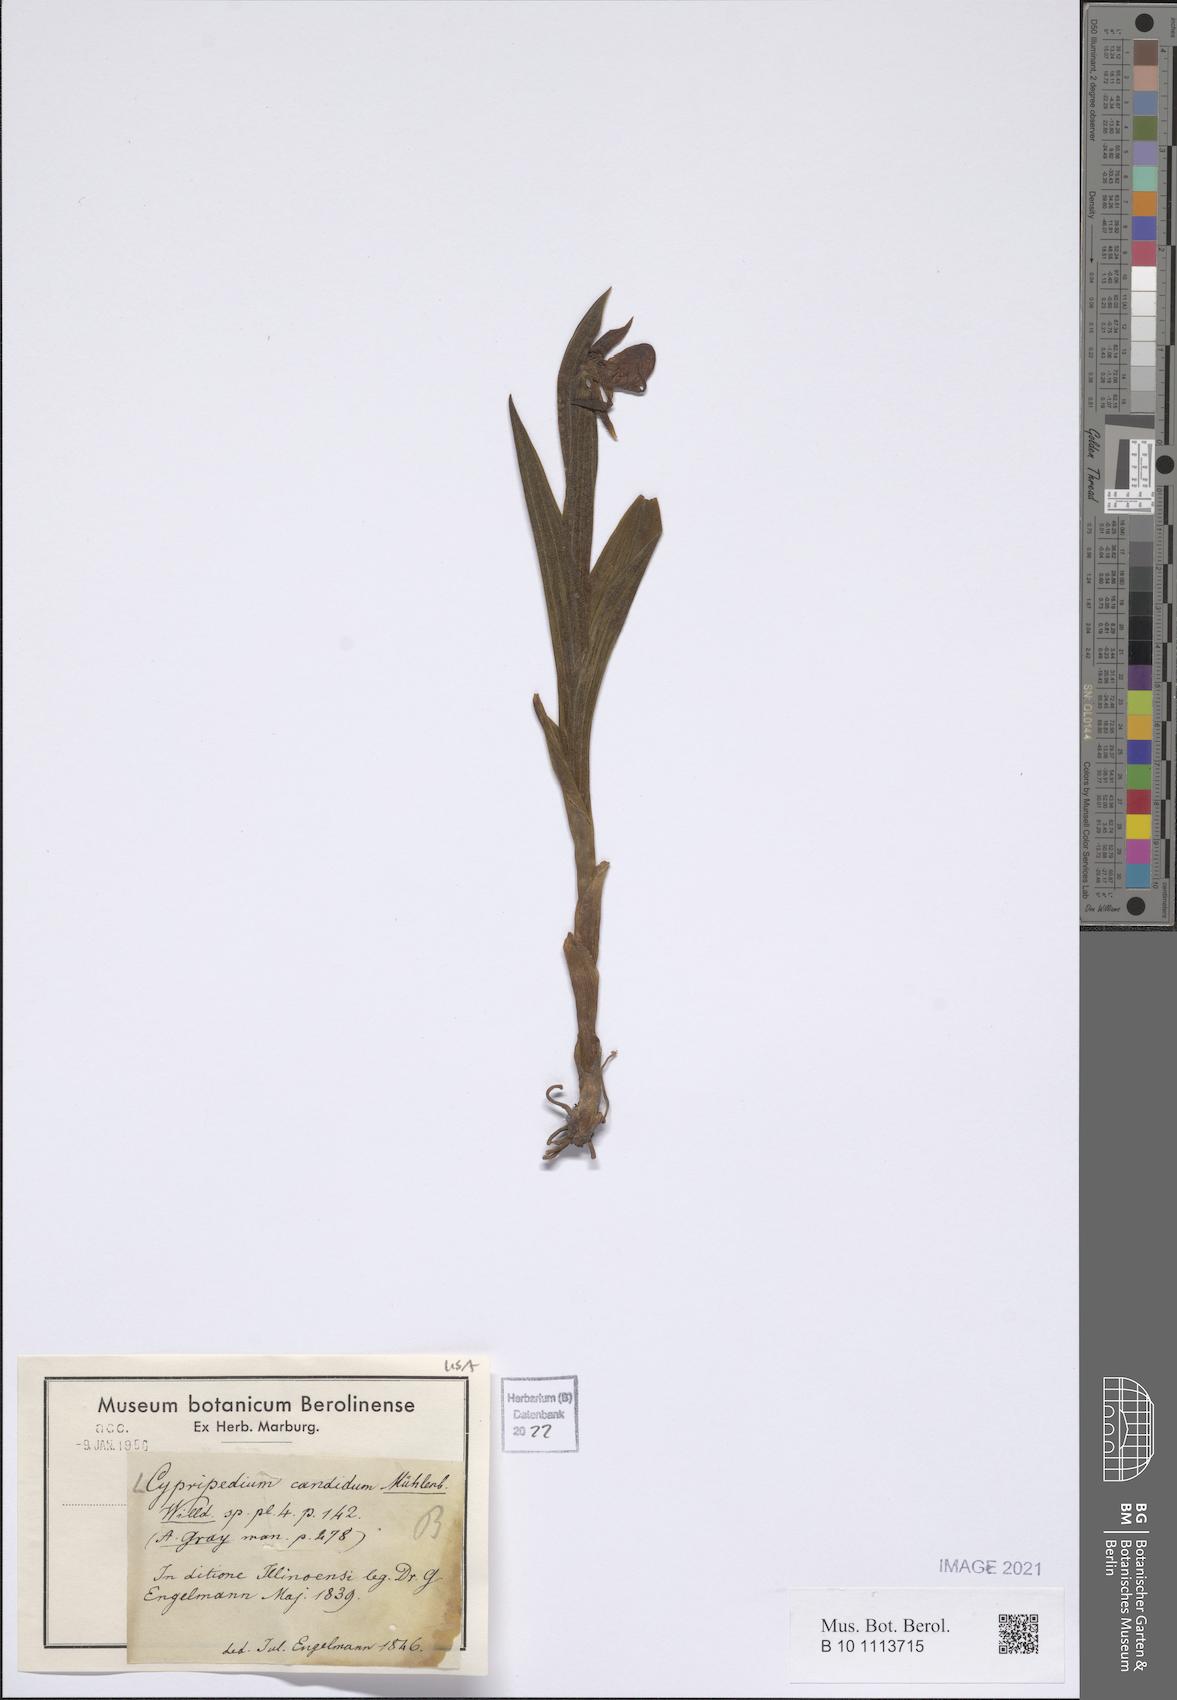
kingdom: Plantae
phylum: Tracheophyta
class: Liliopsida
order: Asparagales
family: Orchidaceae
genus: Cypripedium
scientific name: Cypripedium candidum
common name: White lady's-slipper
